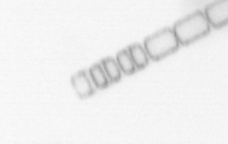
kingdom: Chromista
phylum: Ochrophyta
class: Bacillariophyceae
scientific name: Bacillariophyceae
